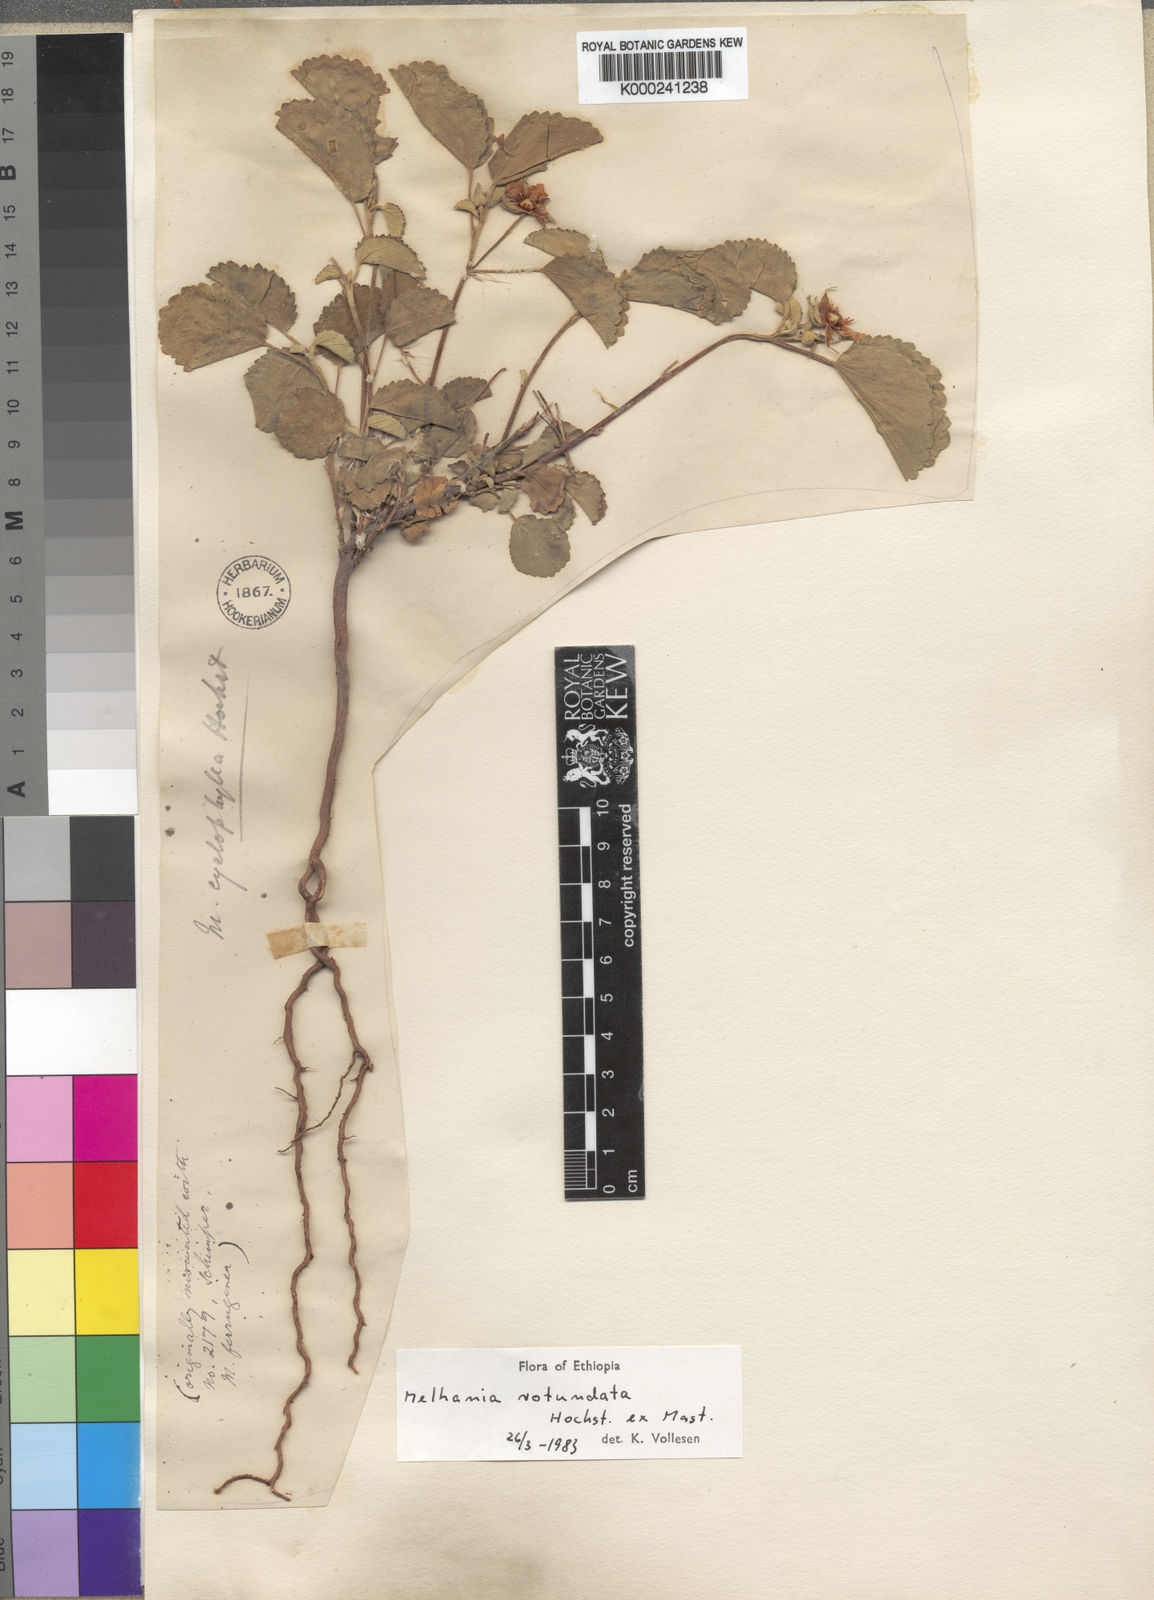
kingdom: Plantae
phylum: Tracheophyta
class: Magnoliopsida
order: Malvales
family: Malvaceae
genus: Melhania
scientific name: Melhania rotundata
